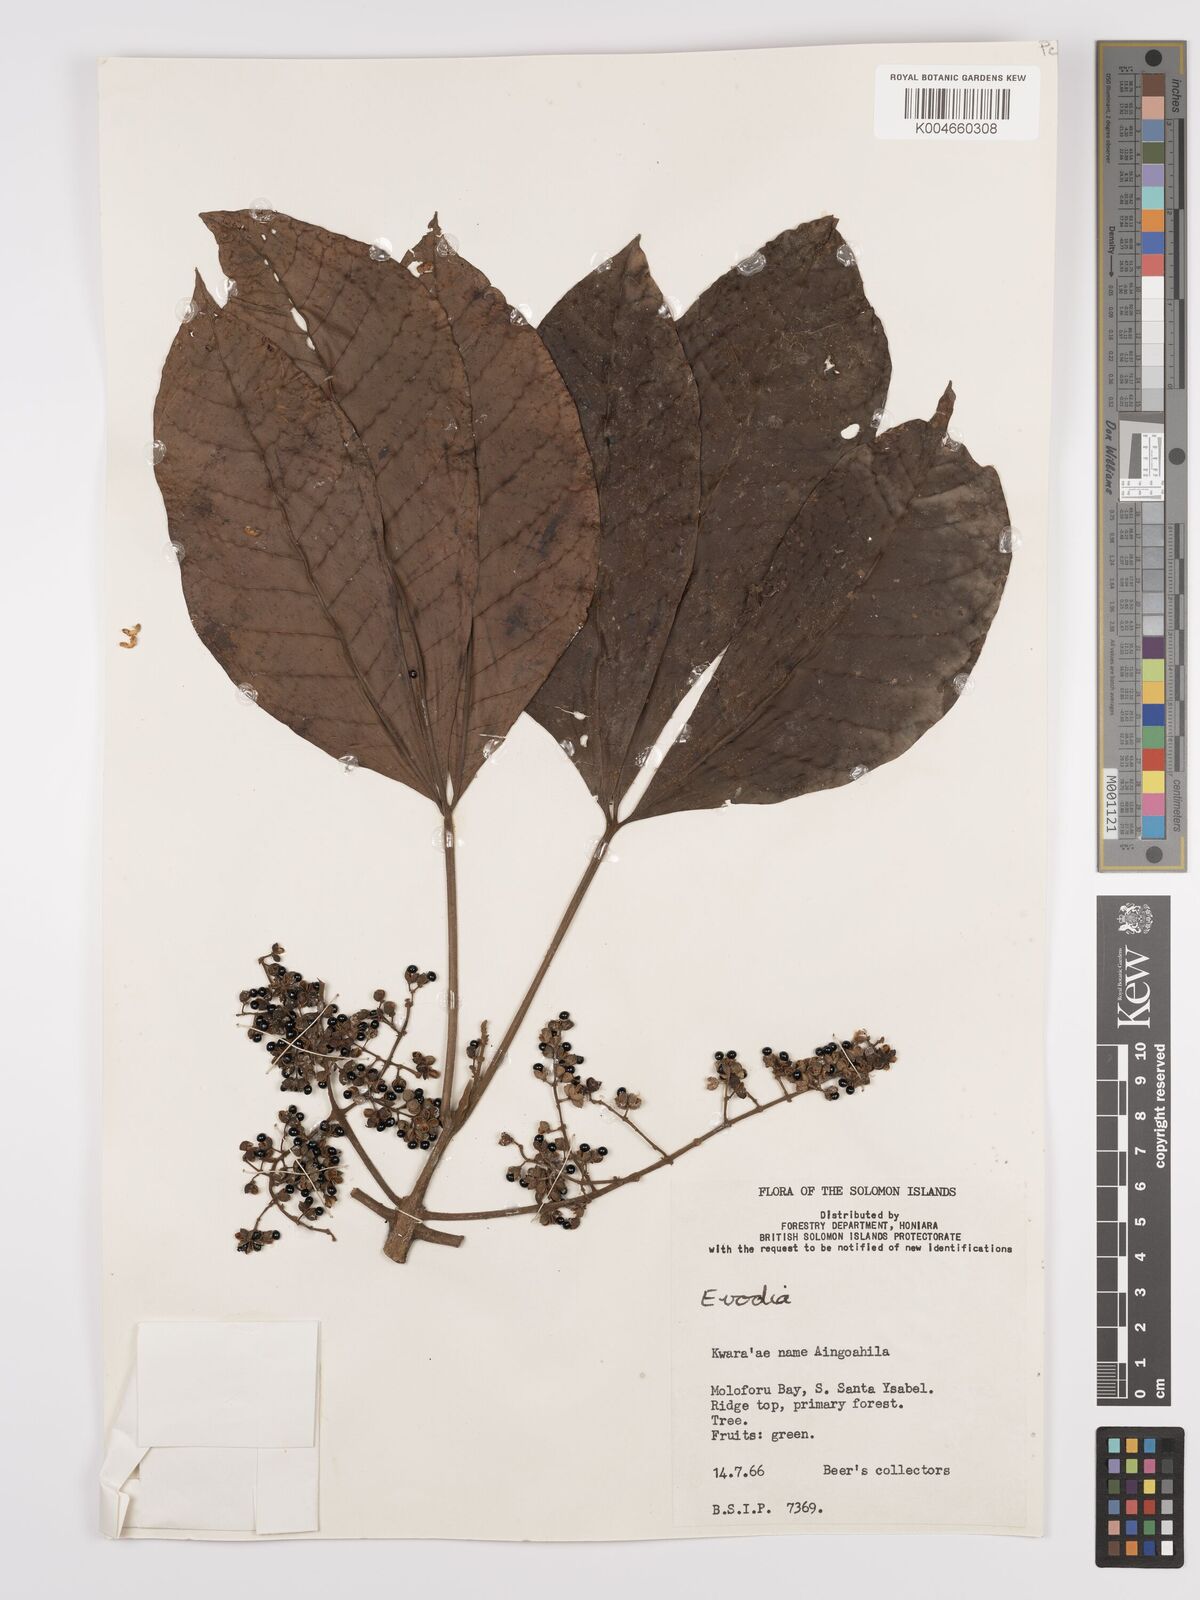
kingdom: Plantae
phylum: Tracheophyta
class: Magnoliopsida
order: Sapindales
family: Rutaceae
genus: Euodia
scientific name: Euodia
